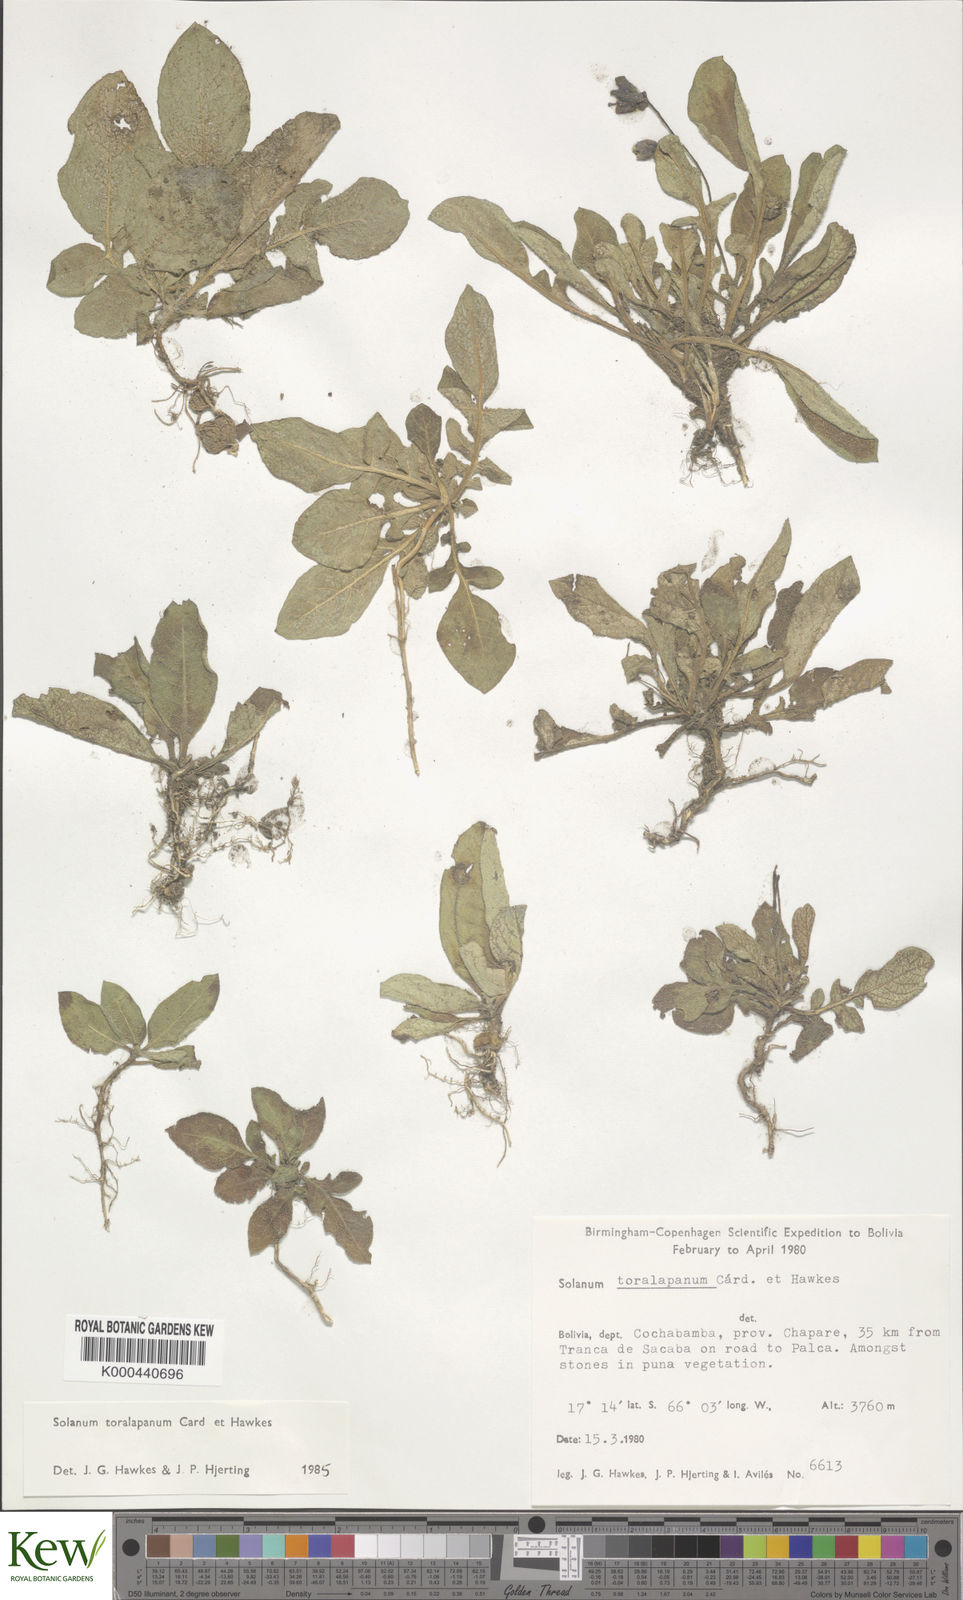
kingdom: Plantae
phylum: Tracheophyta
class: Magnoliopsida
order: Solanales
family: Solanaceae
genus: Solanum
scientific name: Solanum boliviense
